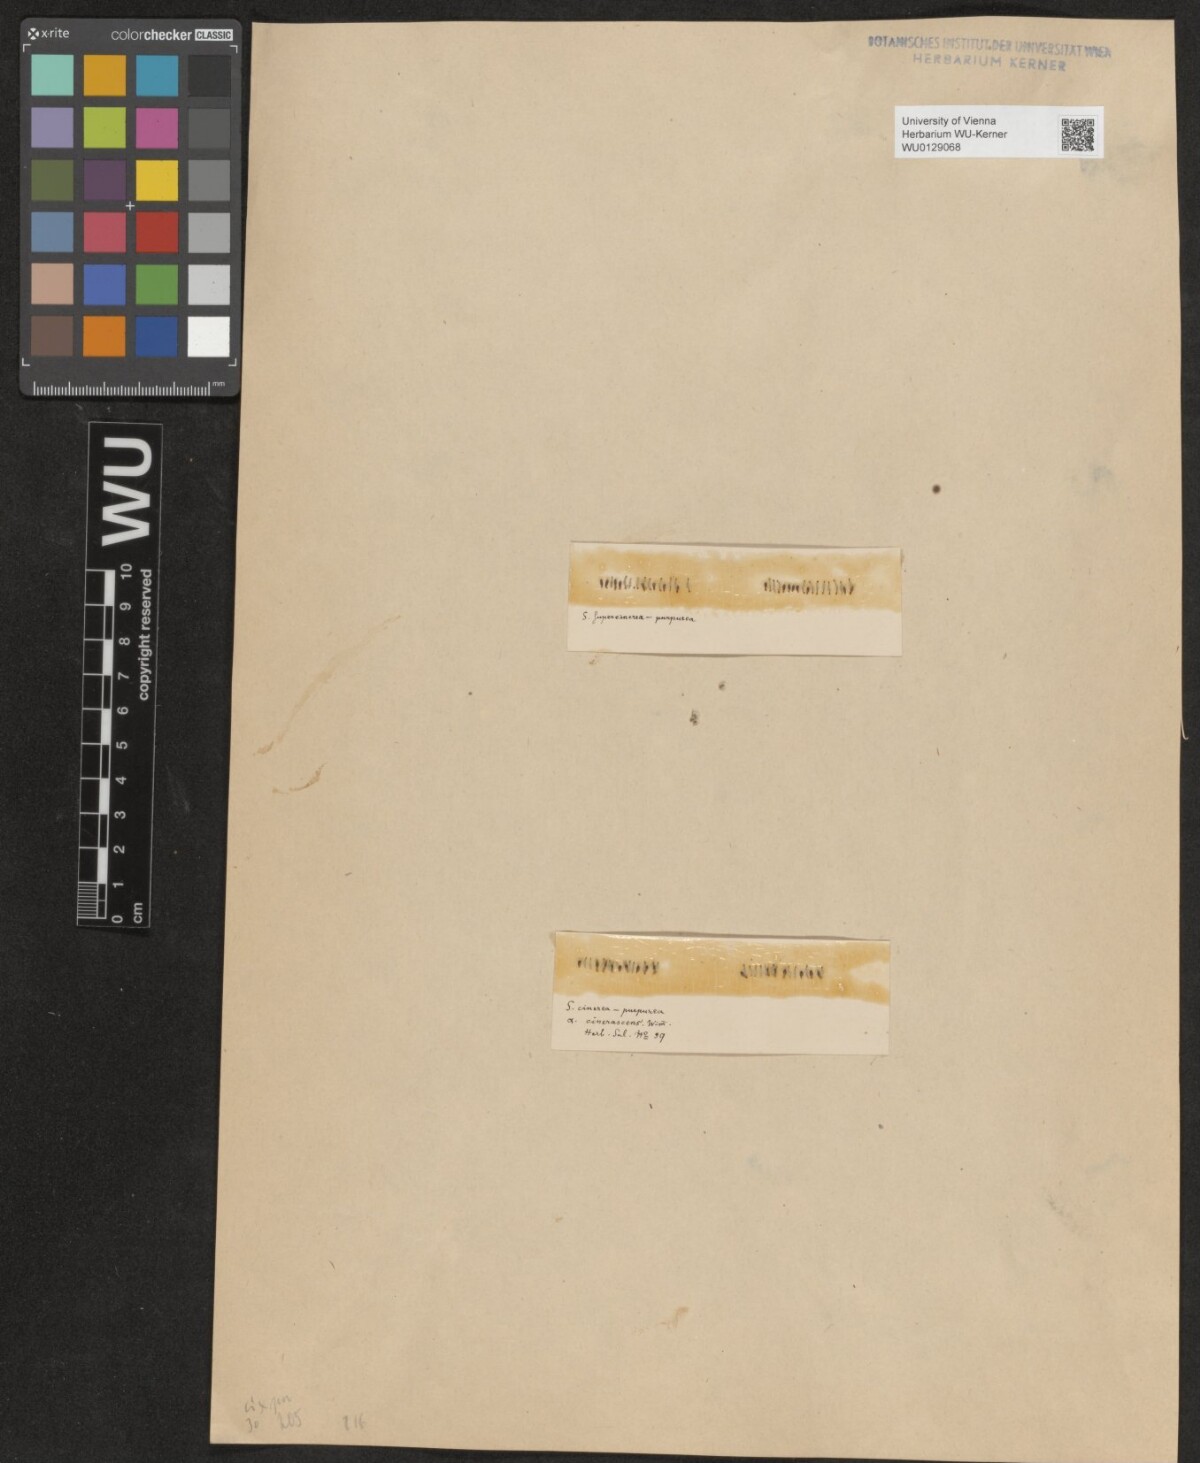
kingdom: Plantae
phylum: Tracheophyta
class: Magnoliopsida
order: Malpighiales
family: Salicaceae
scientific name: Salicaceae
